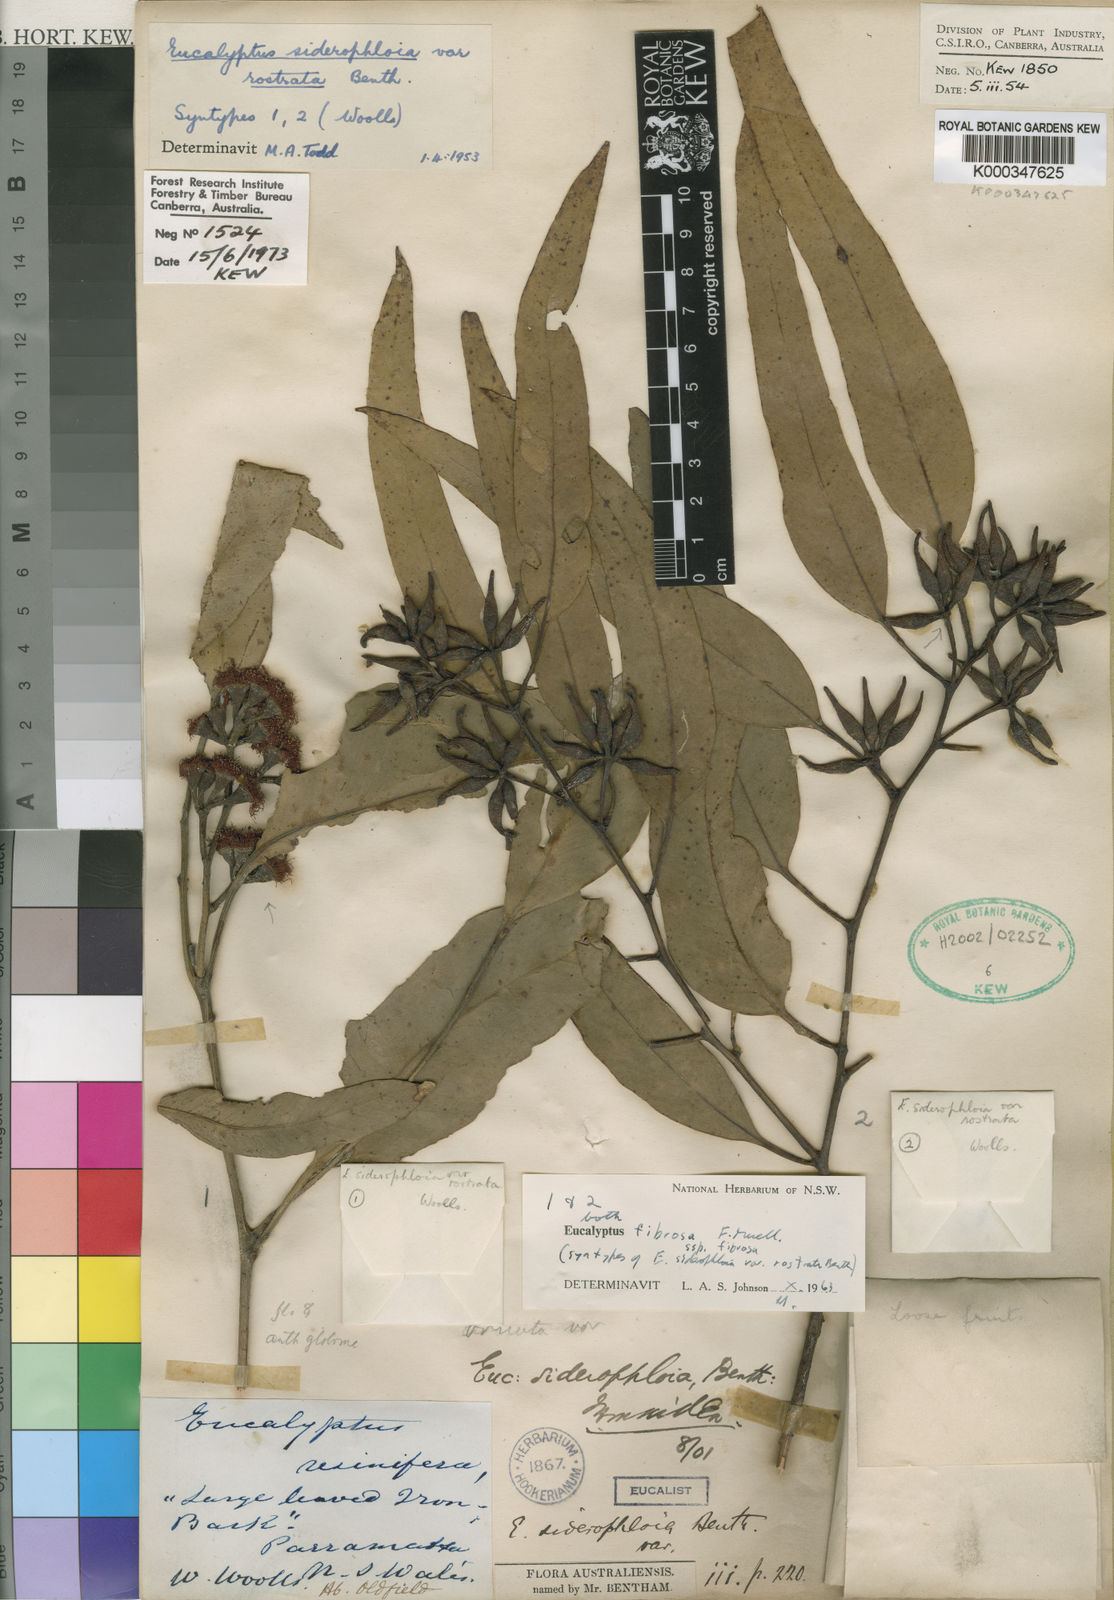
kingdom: Plantae
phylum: Tracheophyta
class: Magnoliopsida
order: Myrtales
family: Myrtaceae
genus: Eucalyptus
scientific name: Eucalyptus fibrosa
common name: Red ironbark
